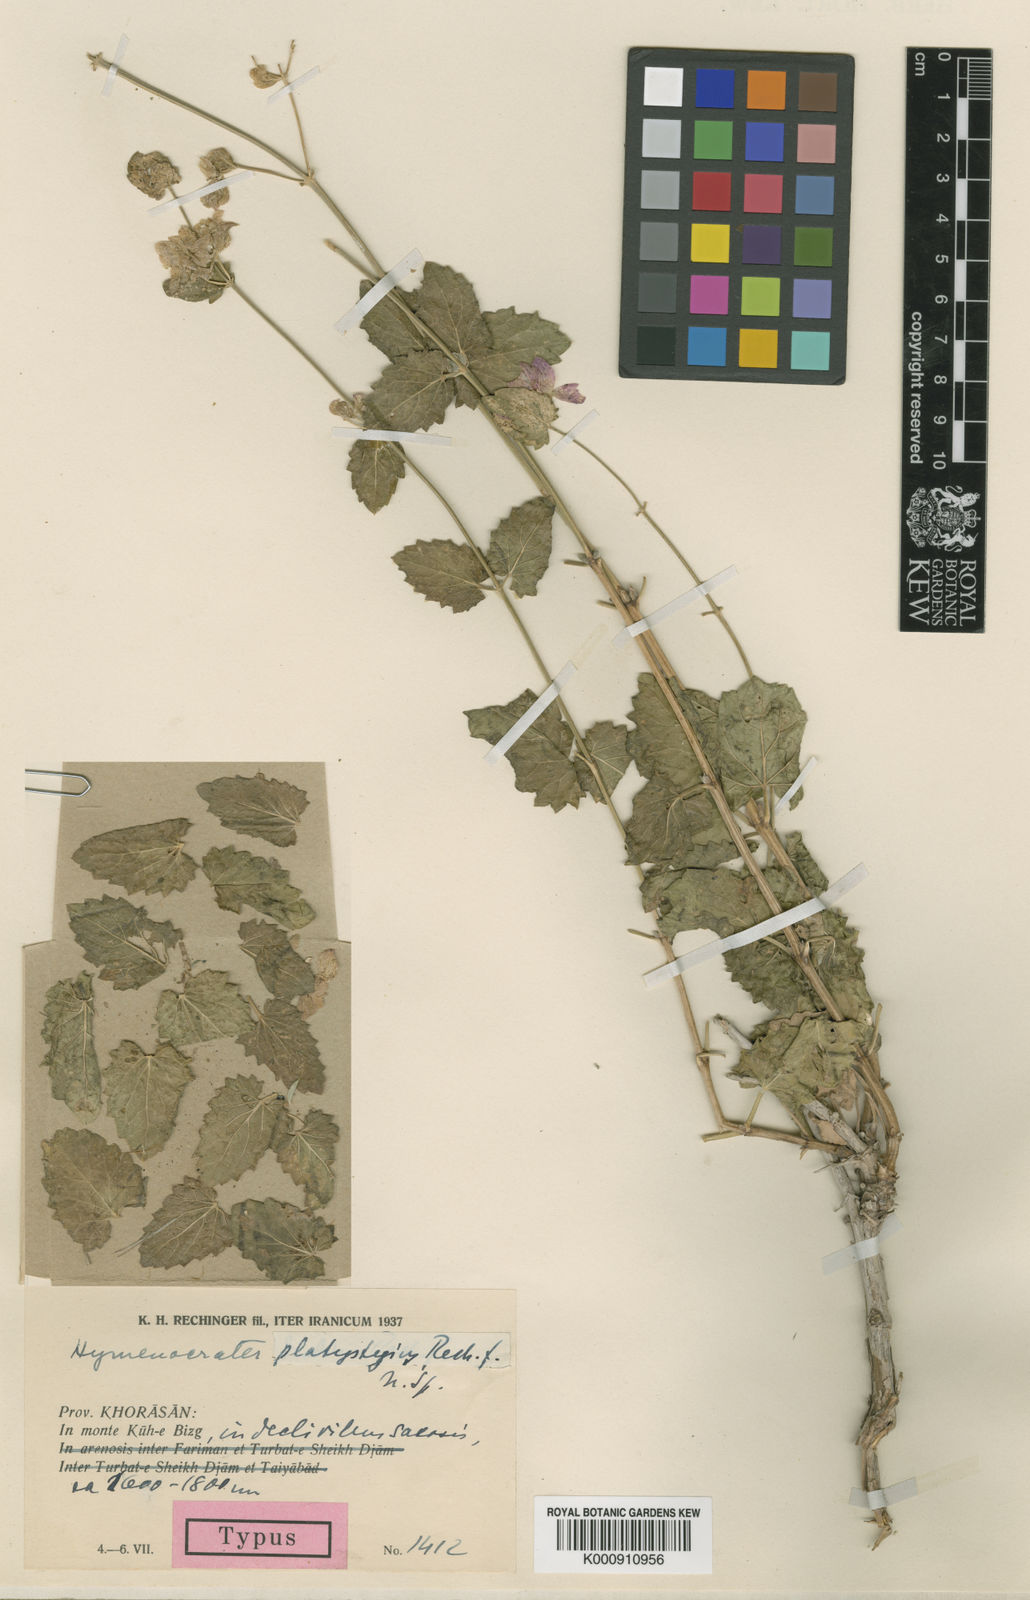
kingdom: Plantae
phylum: Tracheophyta
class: Magnoliopsida
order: Lamiales
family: Lamiaceae
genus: Hymenocrater
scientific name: Hymenocrater platystegius
